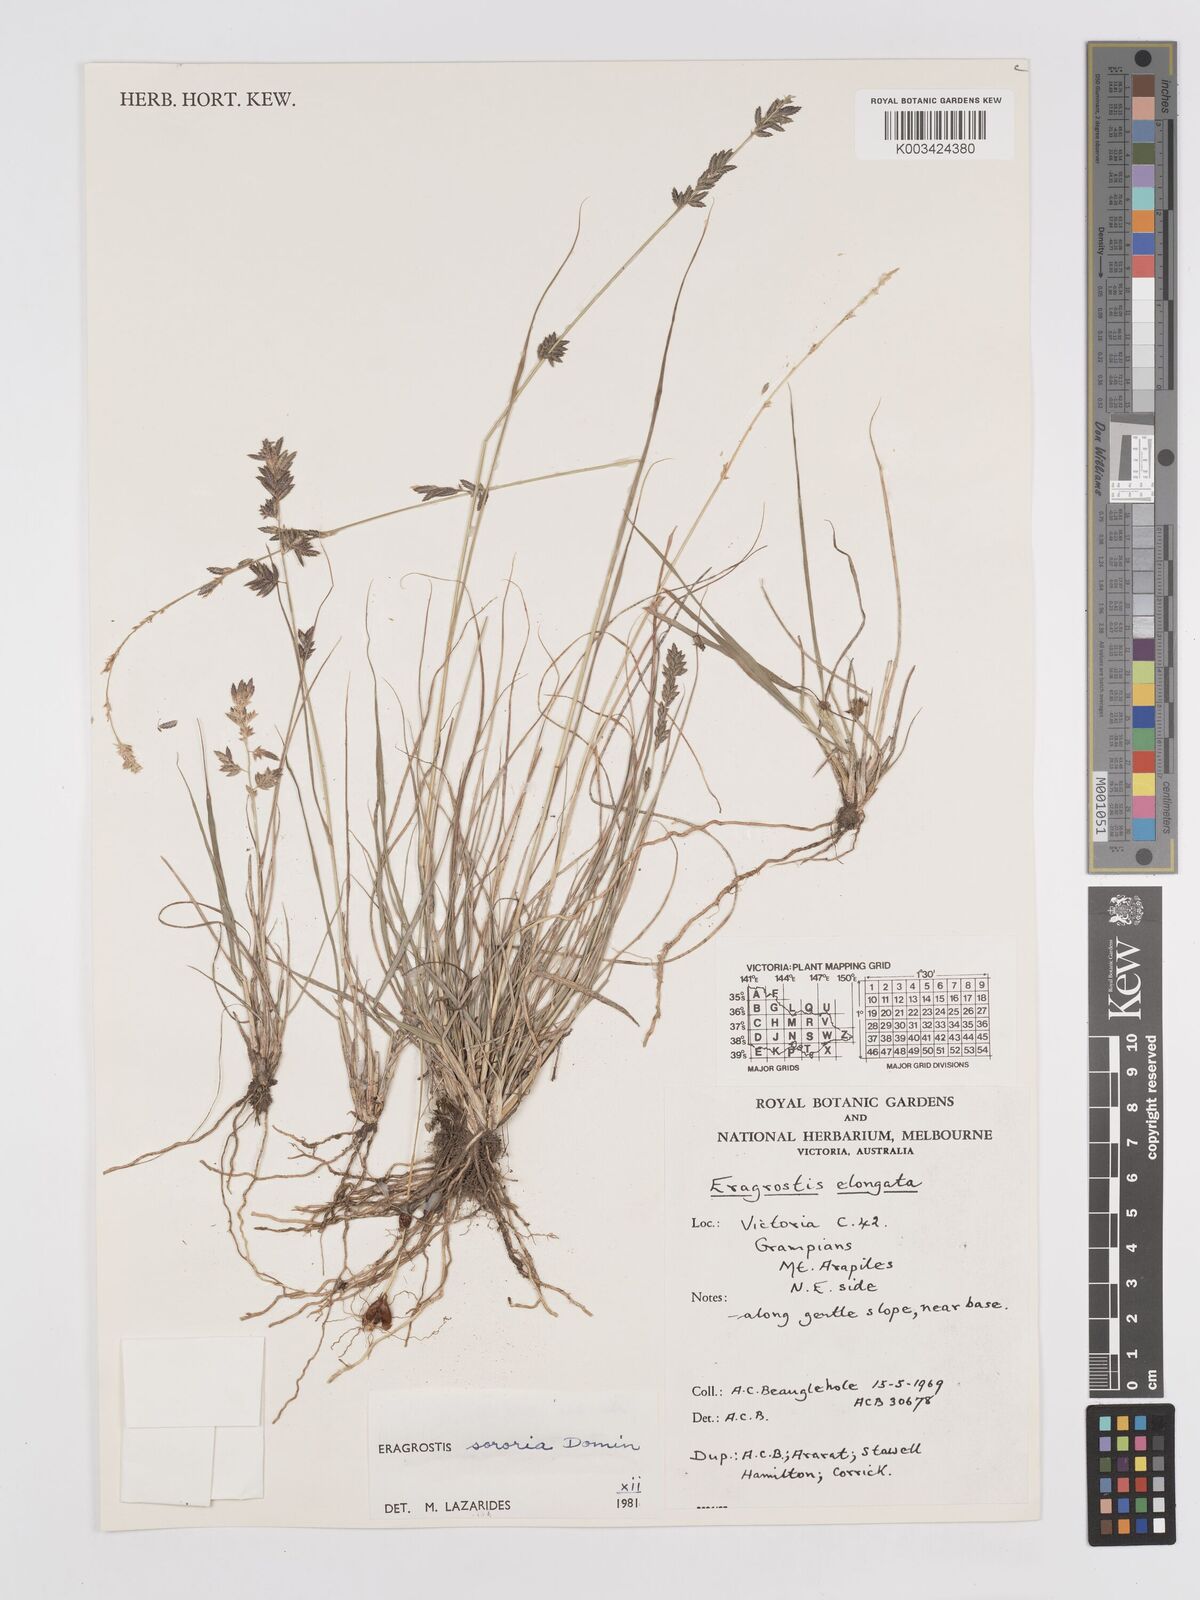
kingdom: Plantae
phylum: Tracheophyta
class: Liliopsida
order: Poales
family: Poaceae
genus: Eragrostis
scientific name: Eragrostis sororia
